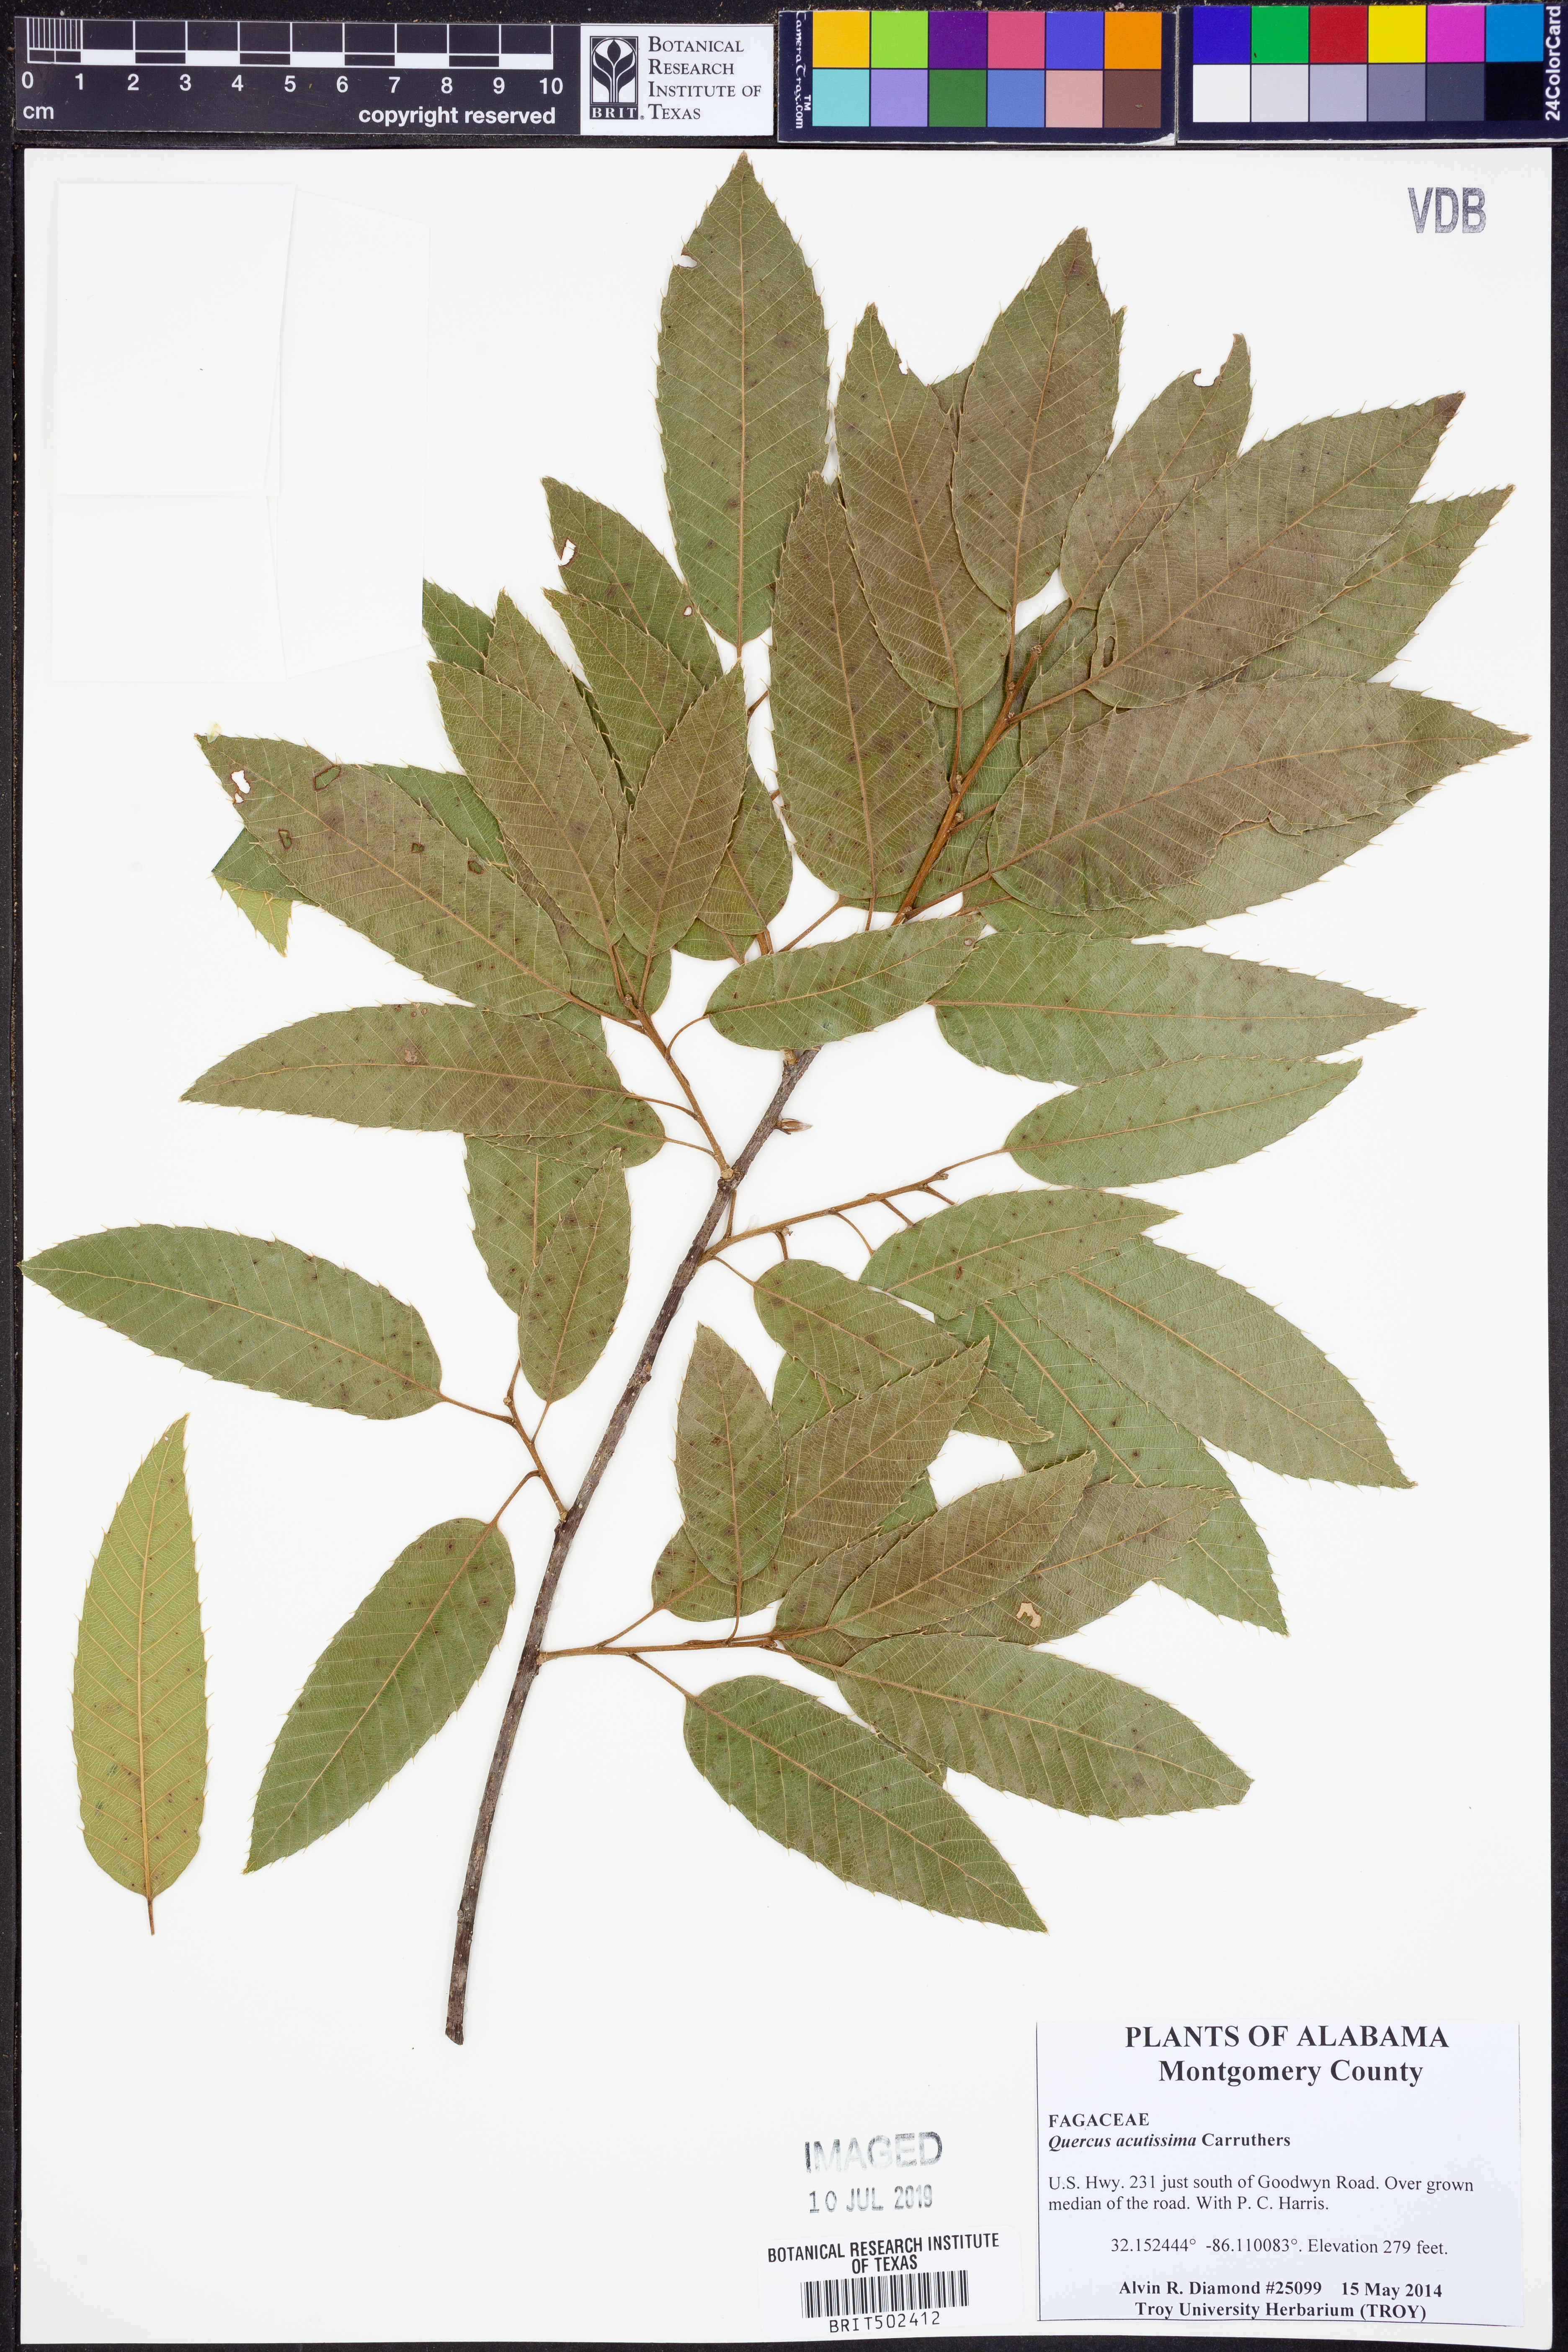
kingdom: Plantae
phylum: Tracheophyta
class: Magnoliopsida
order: Fagales
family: Fagaceae
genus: Quercus
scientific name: Quercus acutissima
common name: Sawtooth oak
